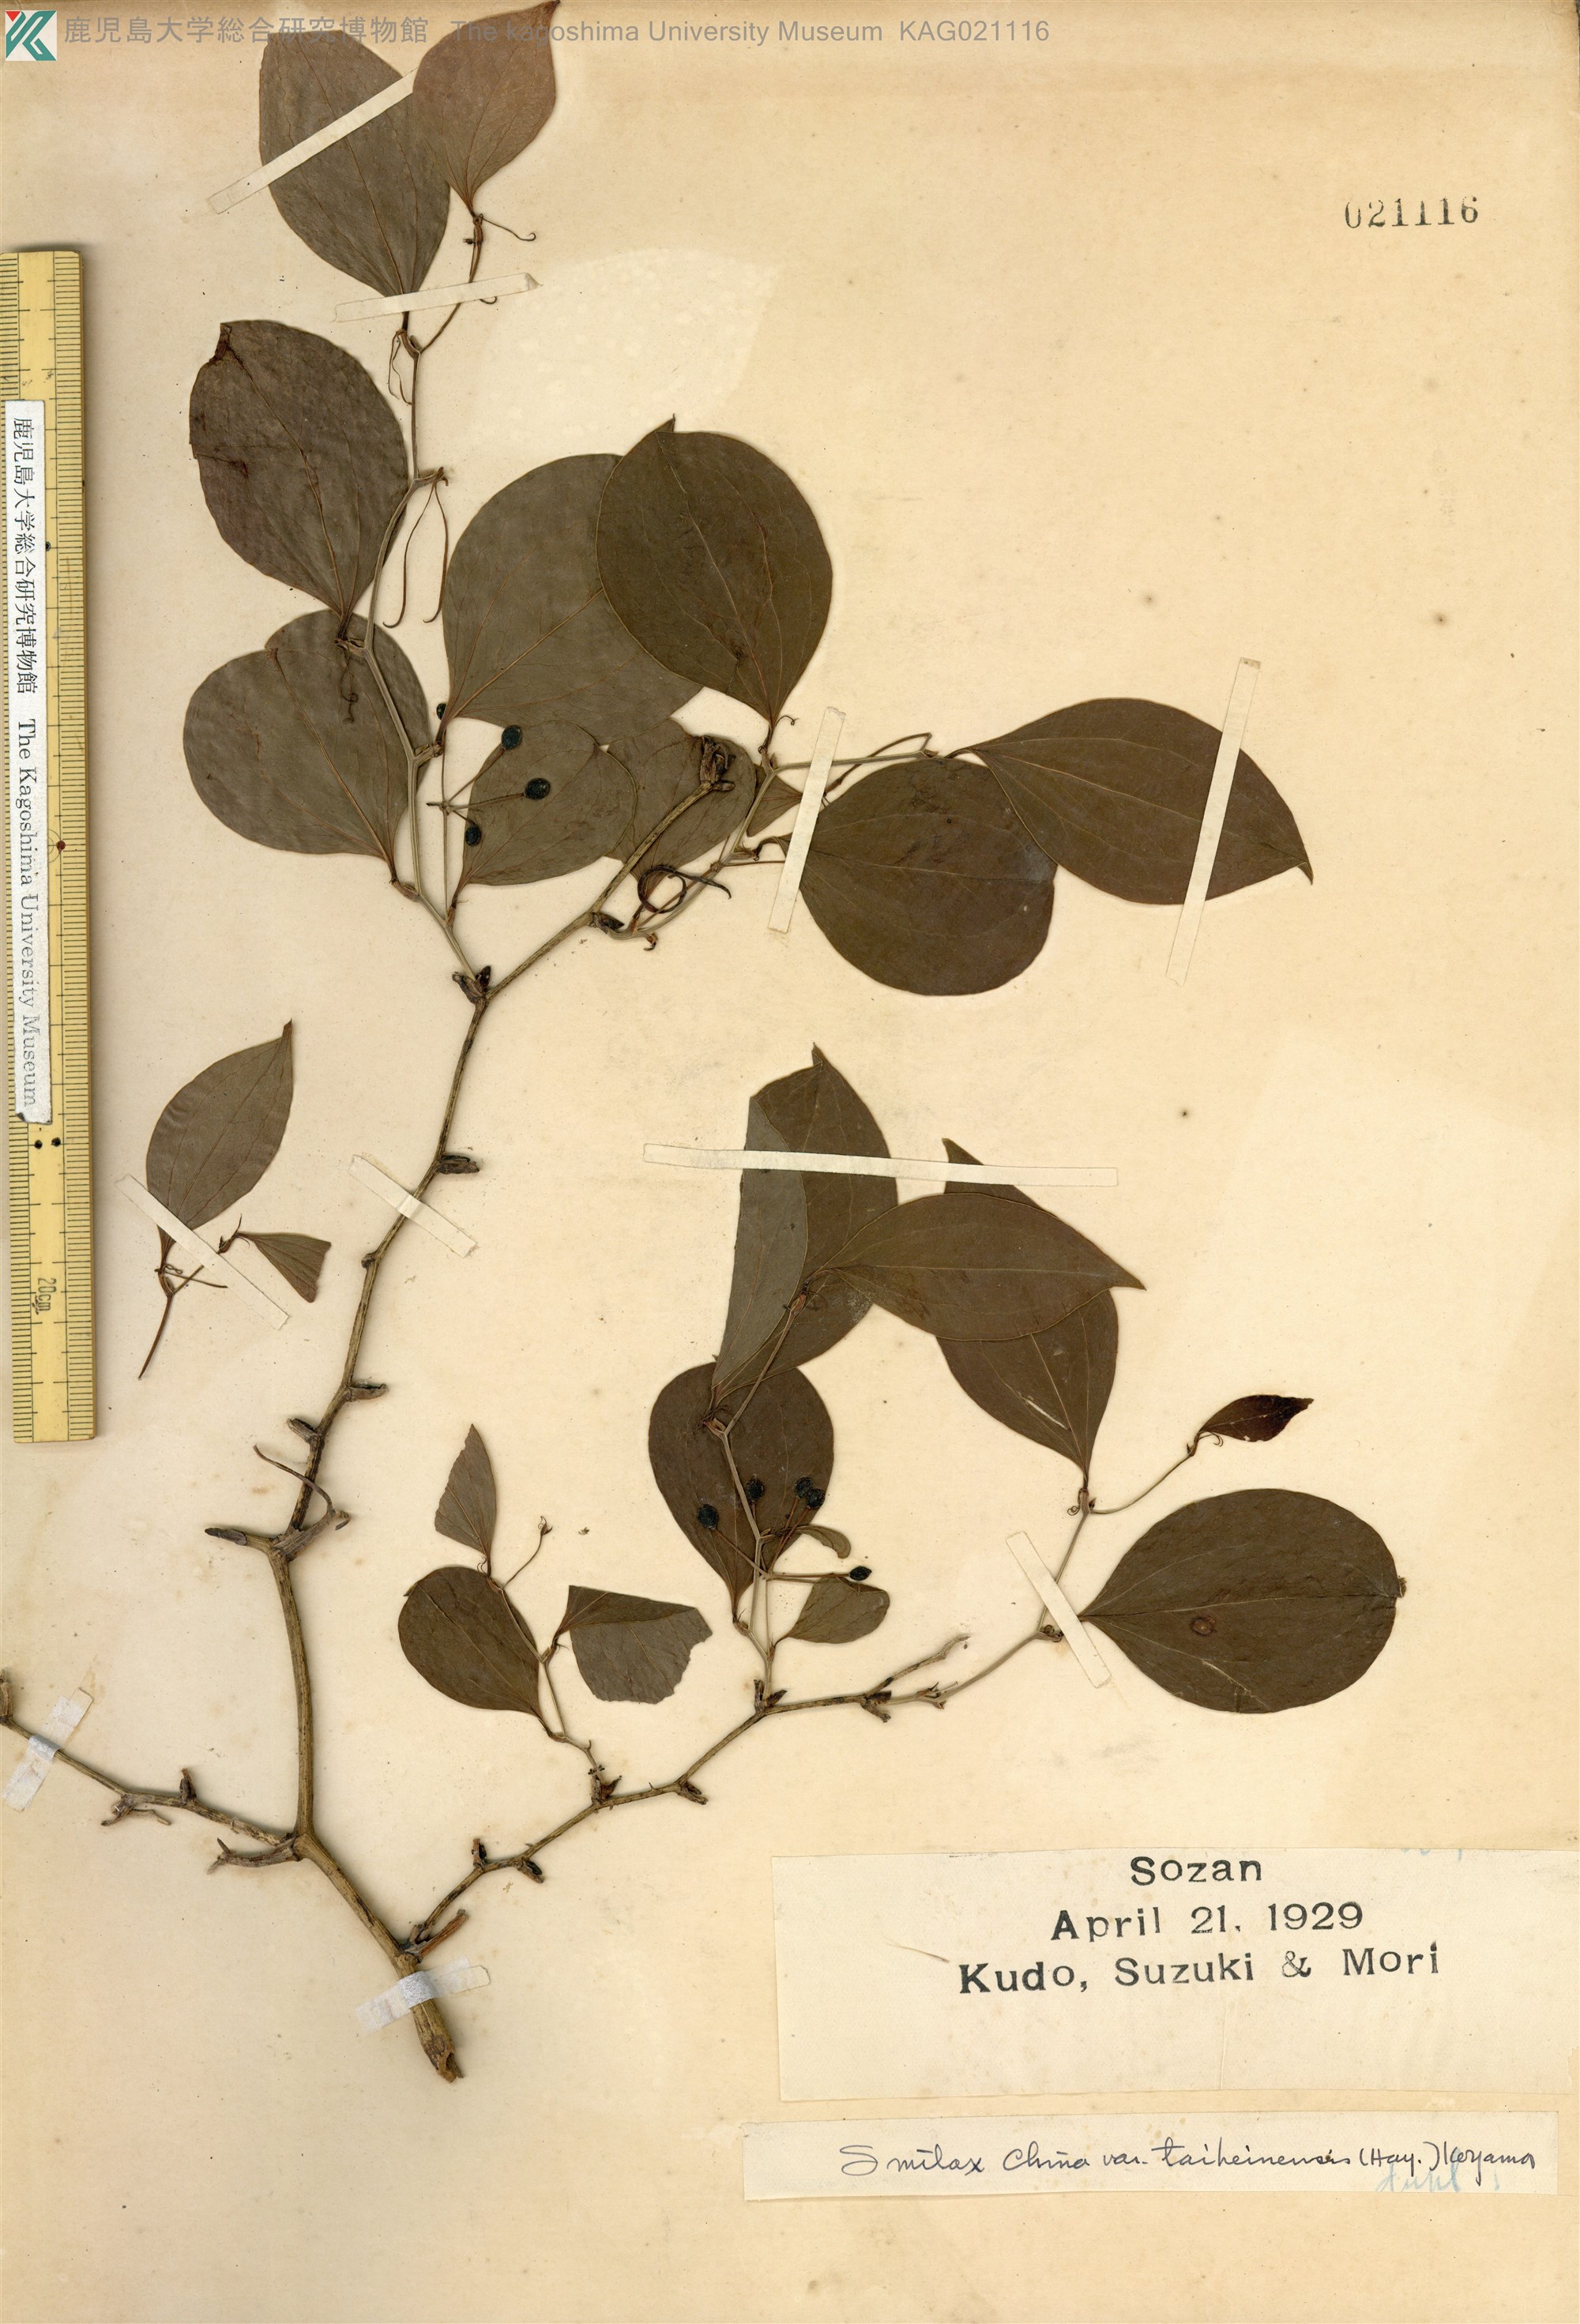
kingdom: Plantae
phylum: Tracheophyta
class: Liliopsida
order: Liliales
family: Smilacaceae
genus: Smilax
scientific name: Smilax china
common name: Chinaroot
